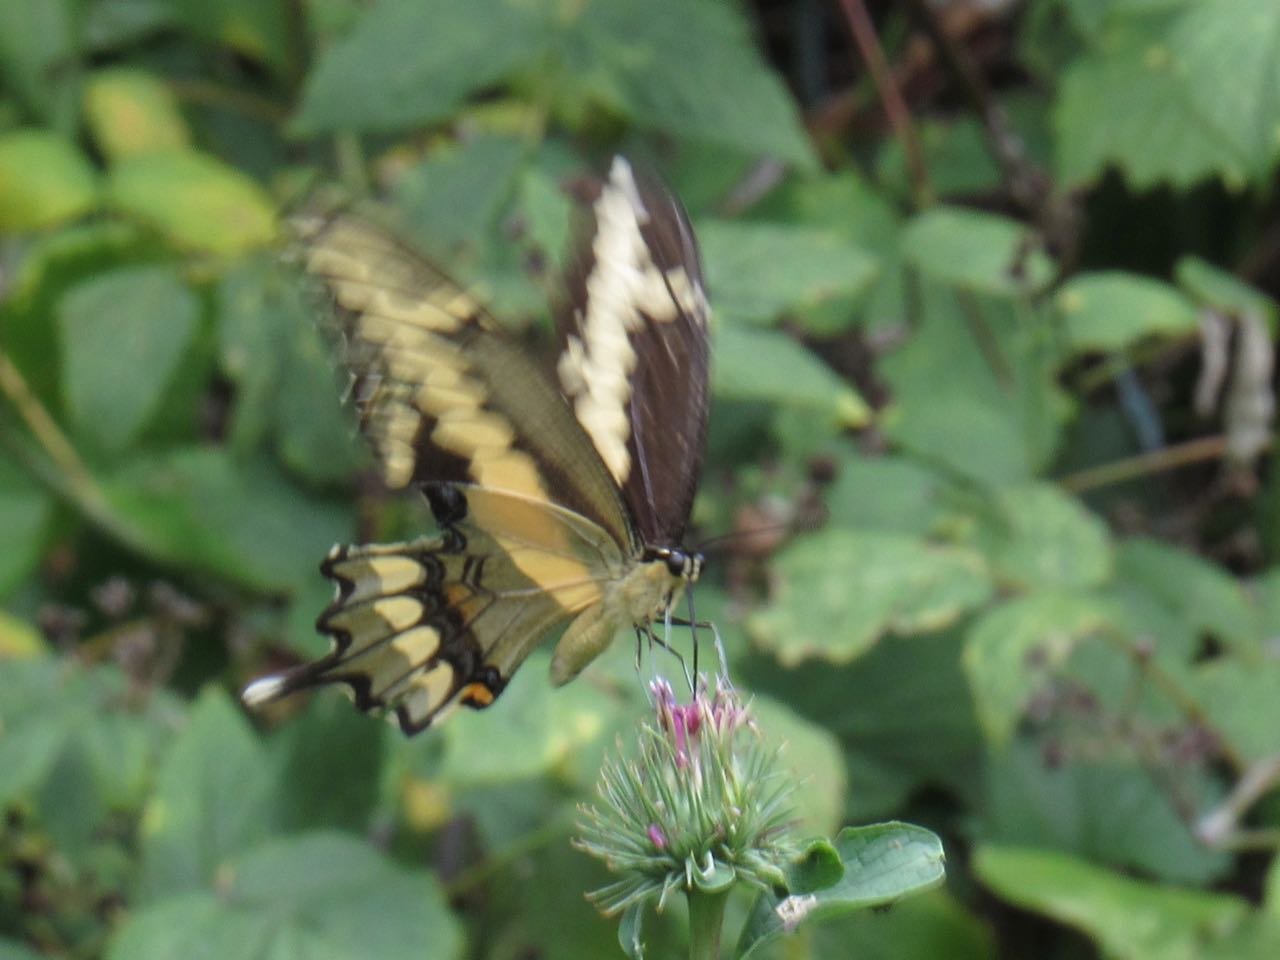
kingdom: Animalia
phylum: Arthropoda
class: Insecta
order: Lepidoptera
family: Papilionidae
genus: Papilio
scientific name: Papilio cresphontes
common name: Eastern Giant Swallowtail
